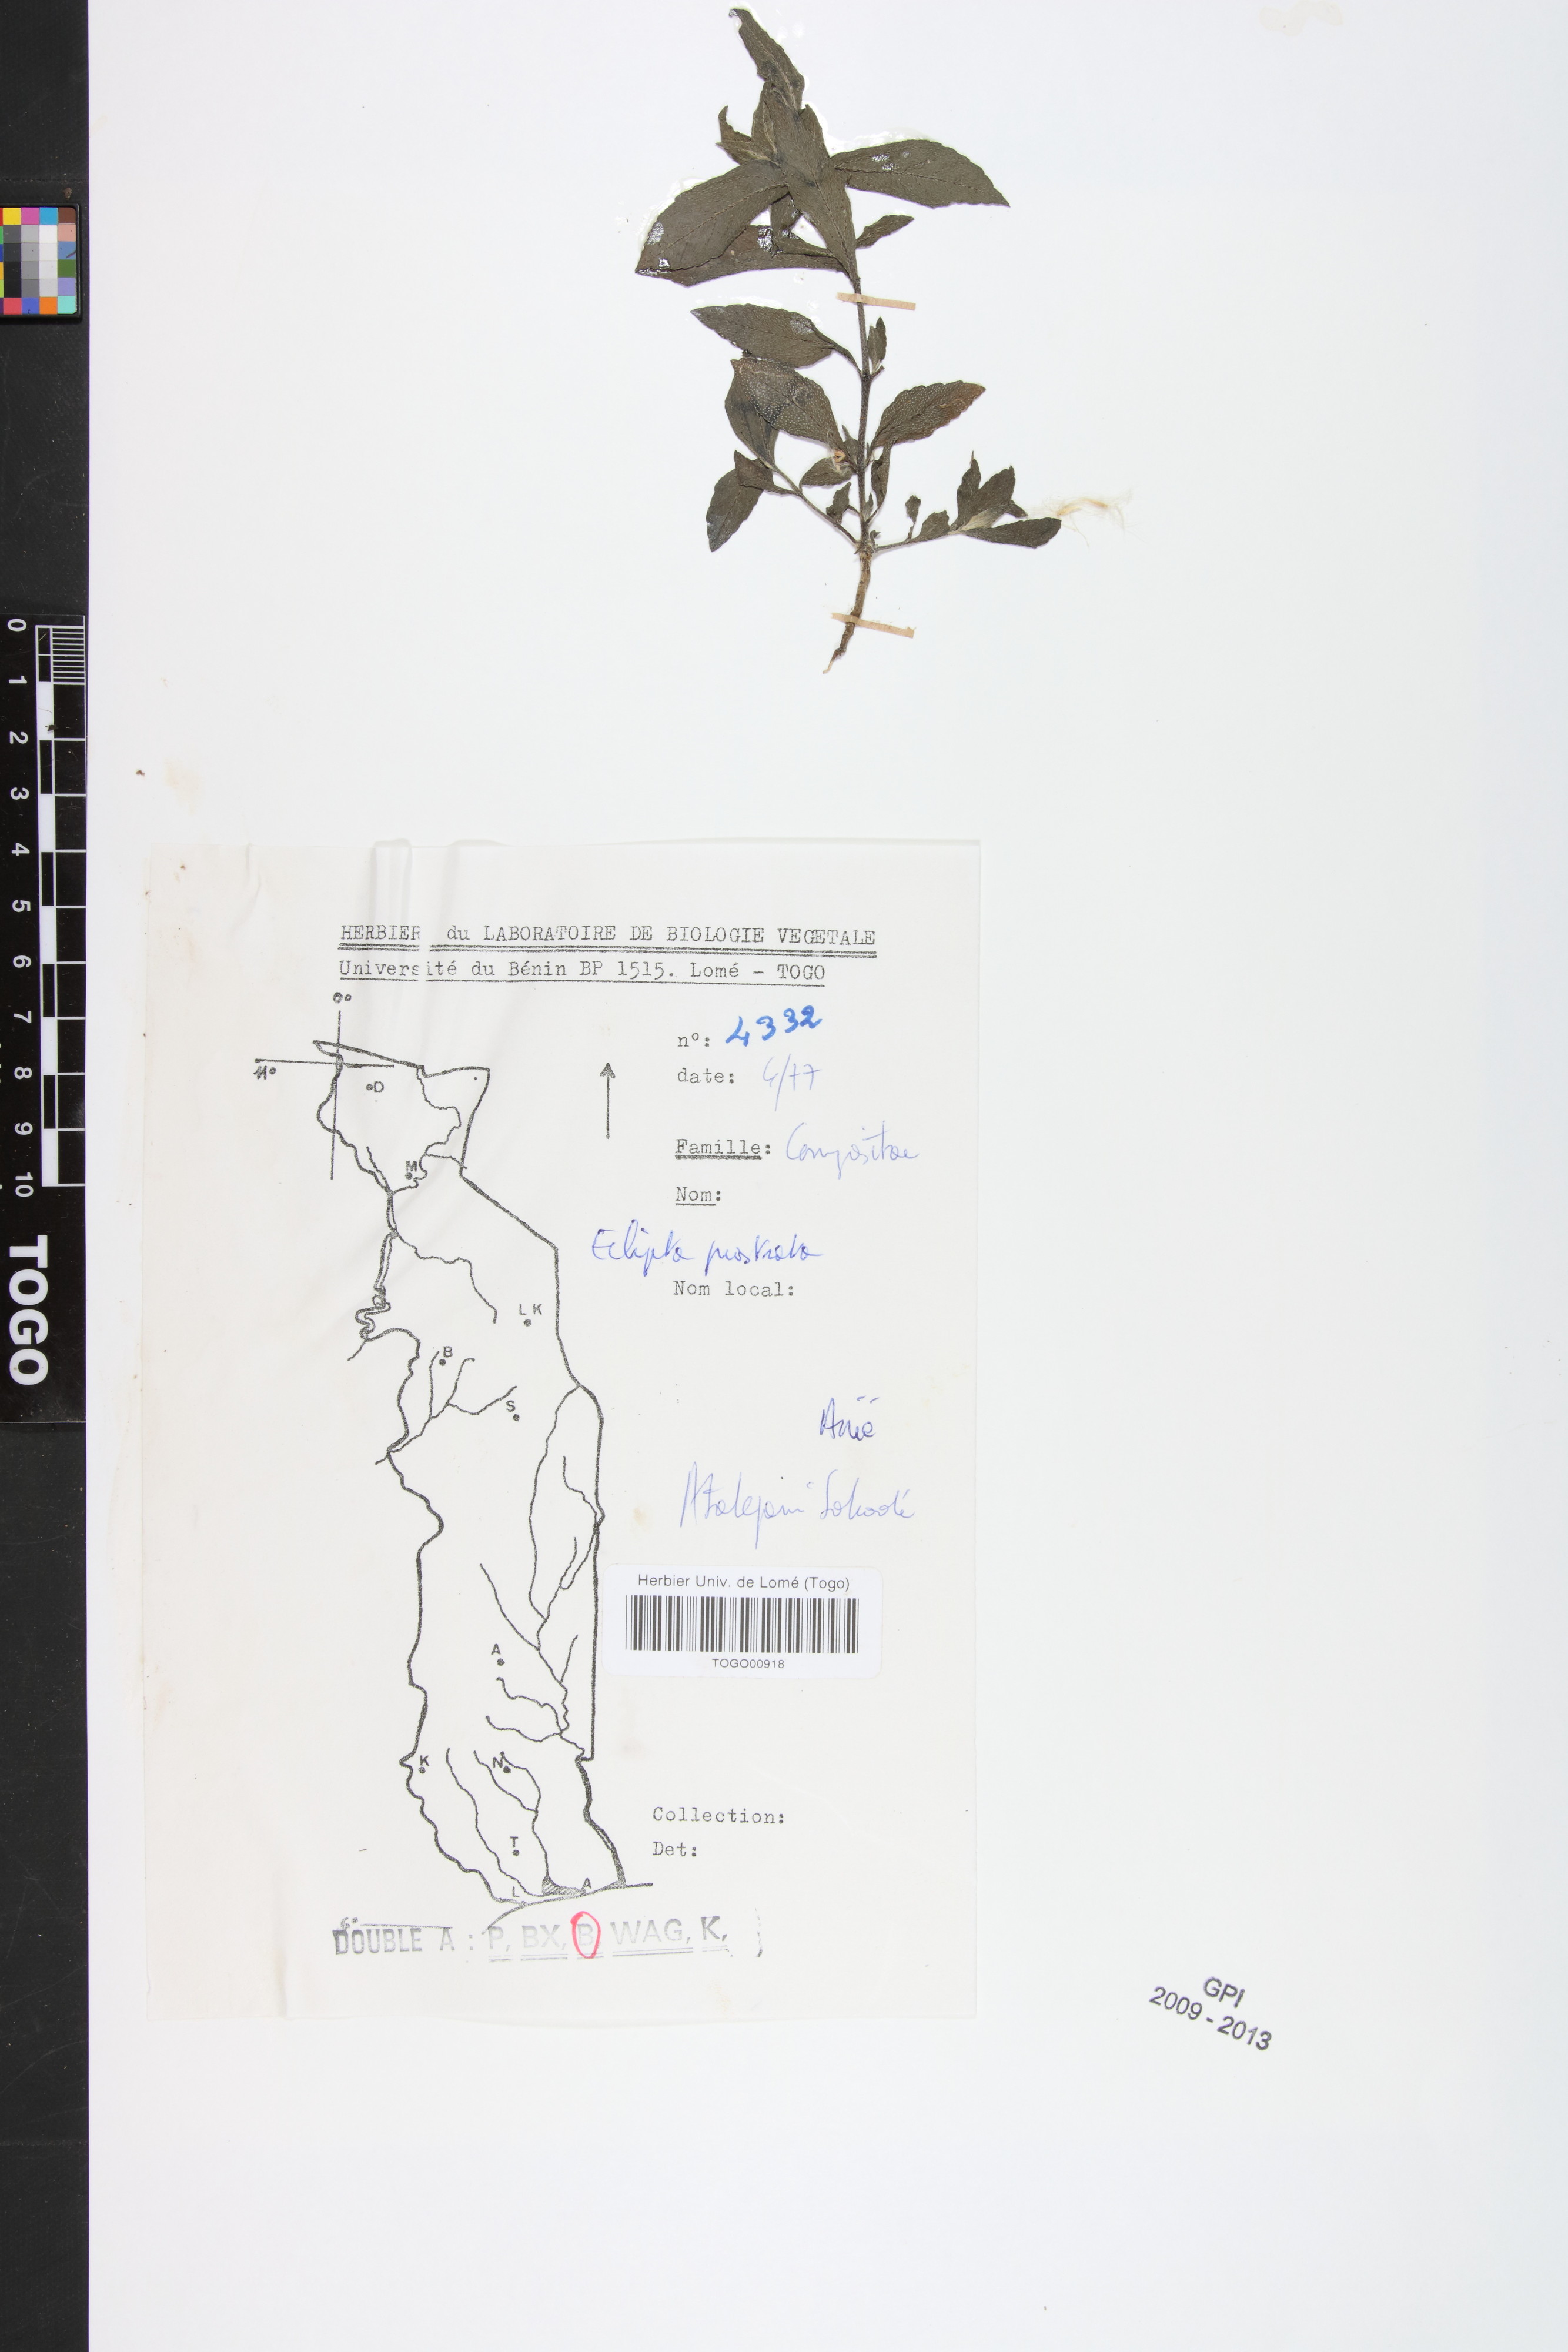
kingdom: Plantae
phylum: Tracheophyta
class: Magnoliopsida
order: Asterales
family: Asteraceae
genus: Eclipta
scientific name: Eclipta prostrata
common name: False daisy
